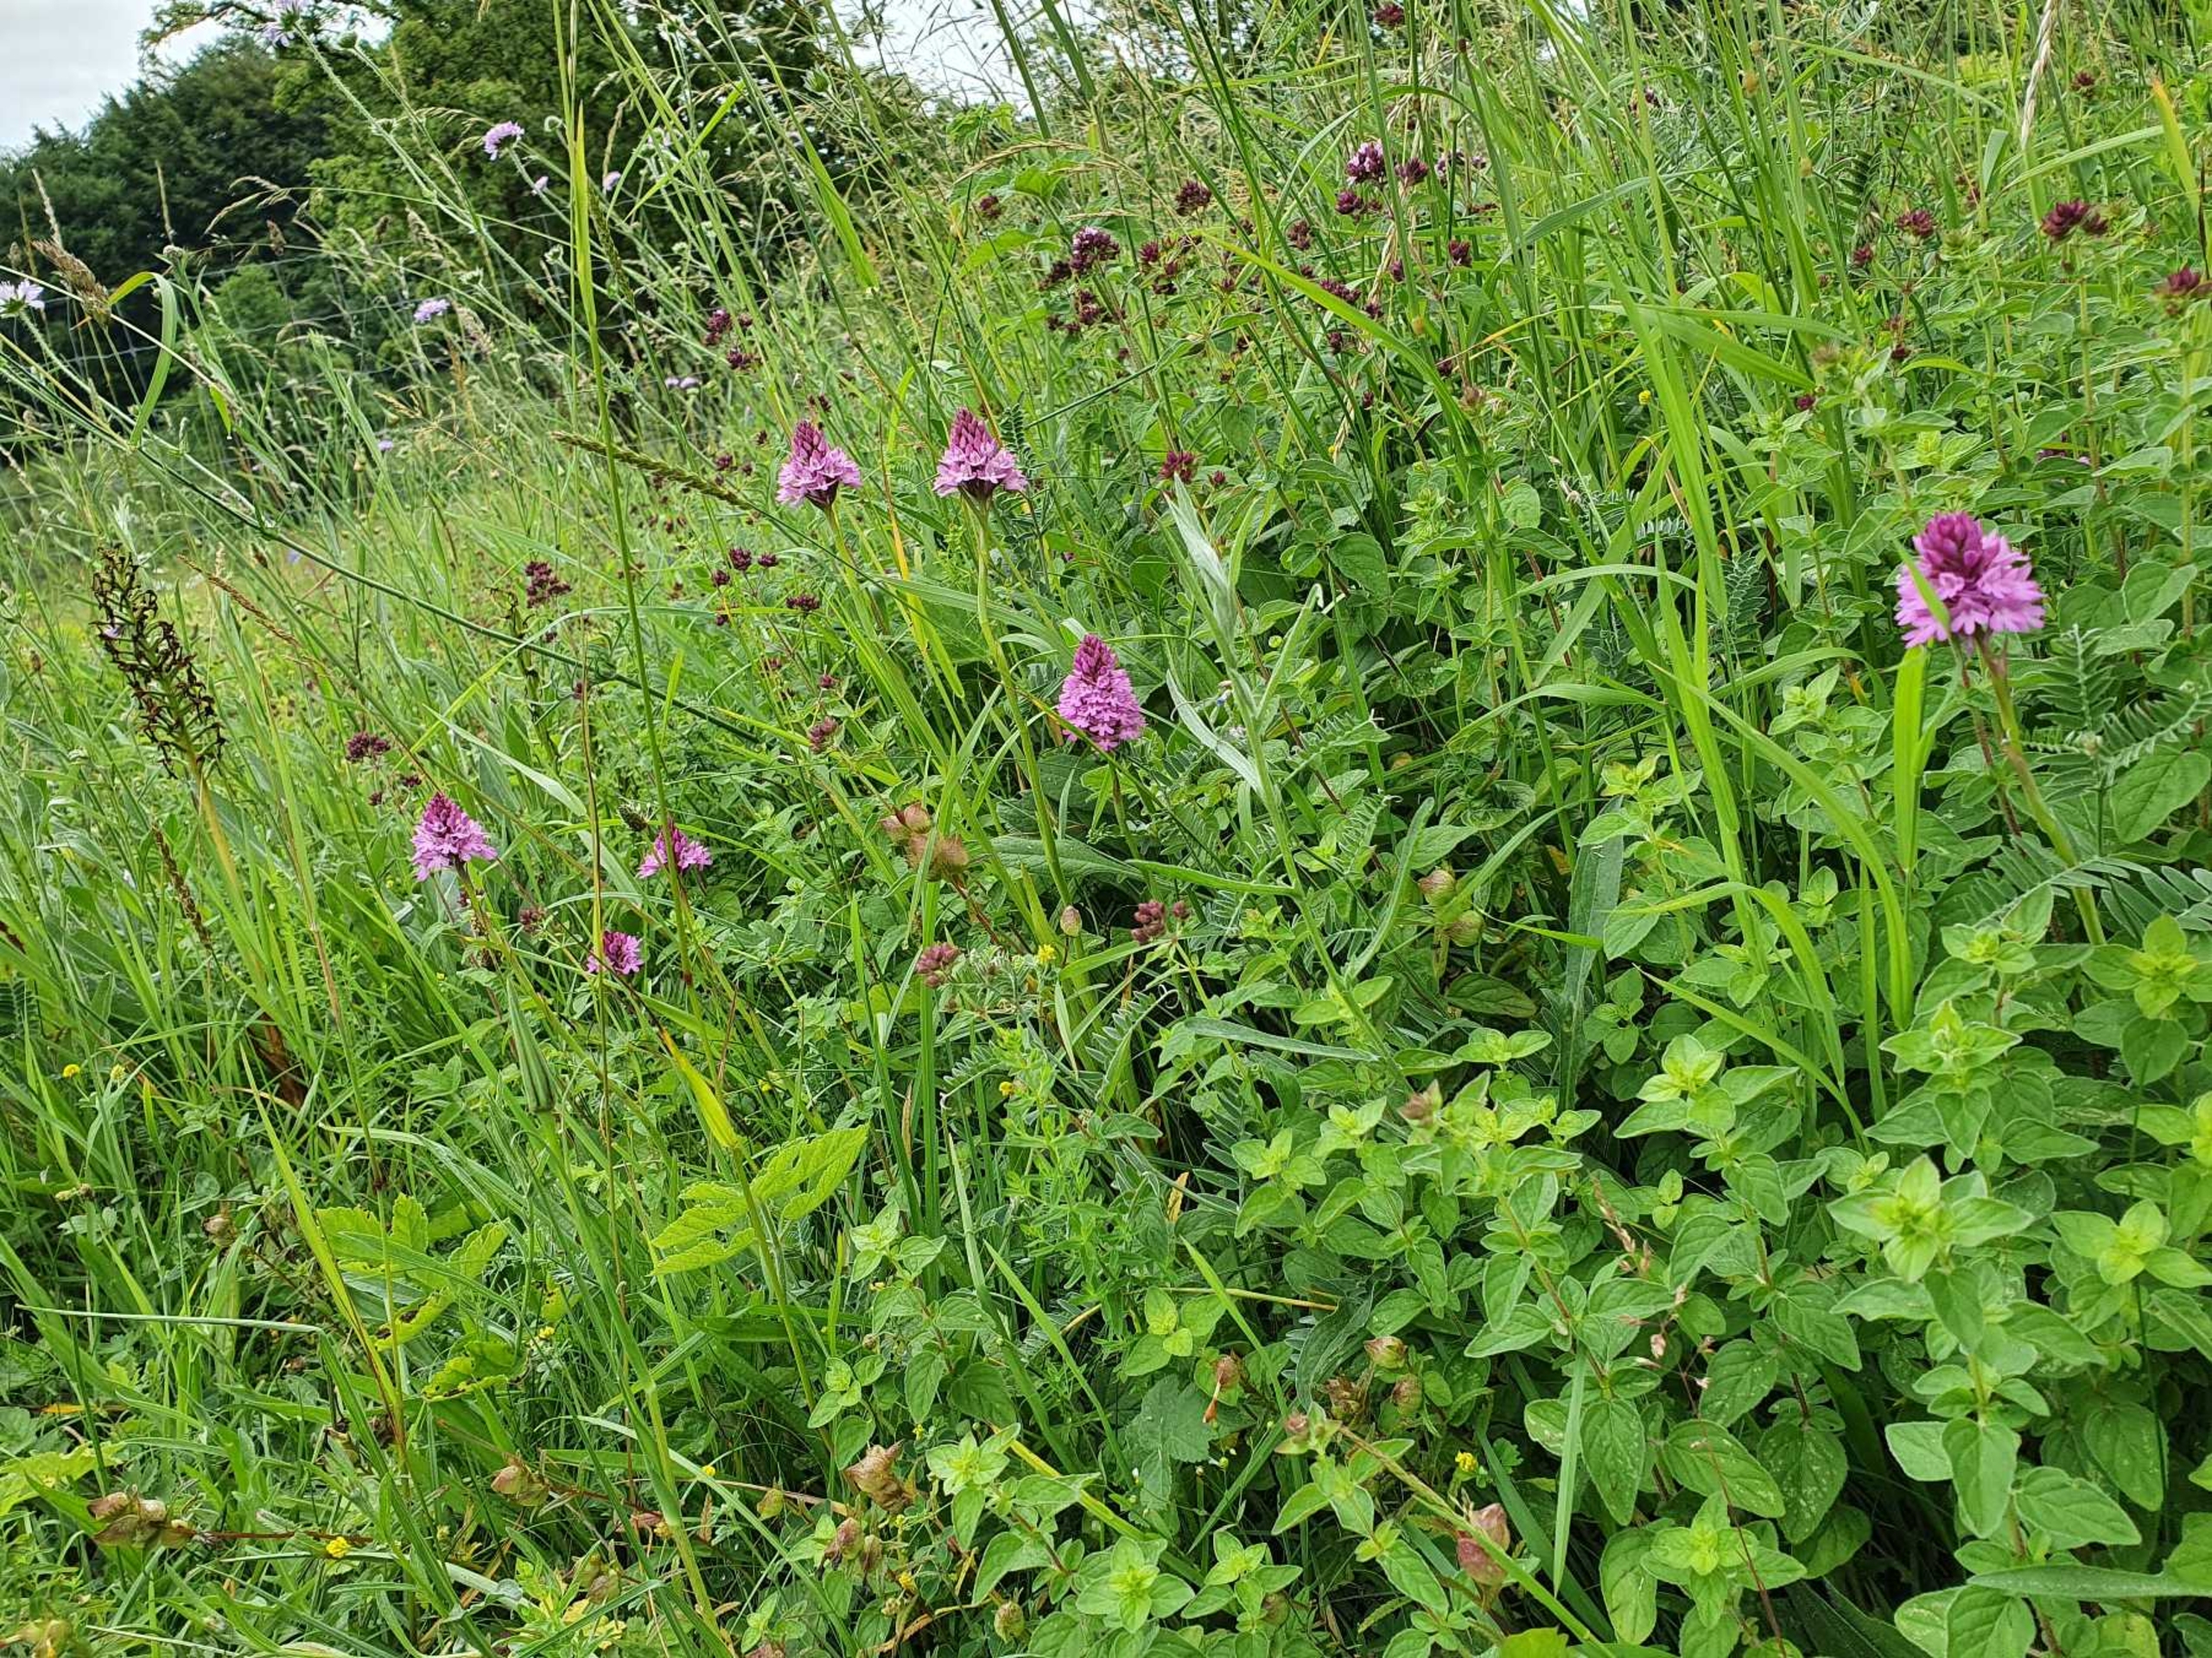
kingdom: Plantae
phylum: Tracheophyta
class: Liliopsida
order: Asparagales
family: Orchidaceae
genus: Anacamptis
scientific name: Anacamptis pyramidalis
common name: Horndrager
